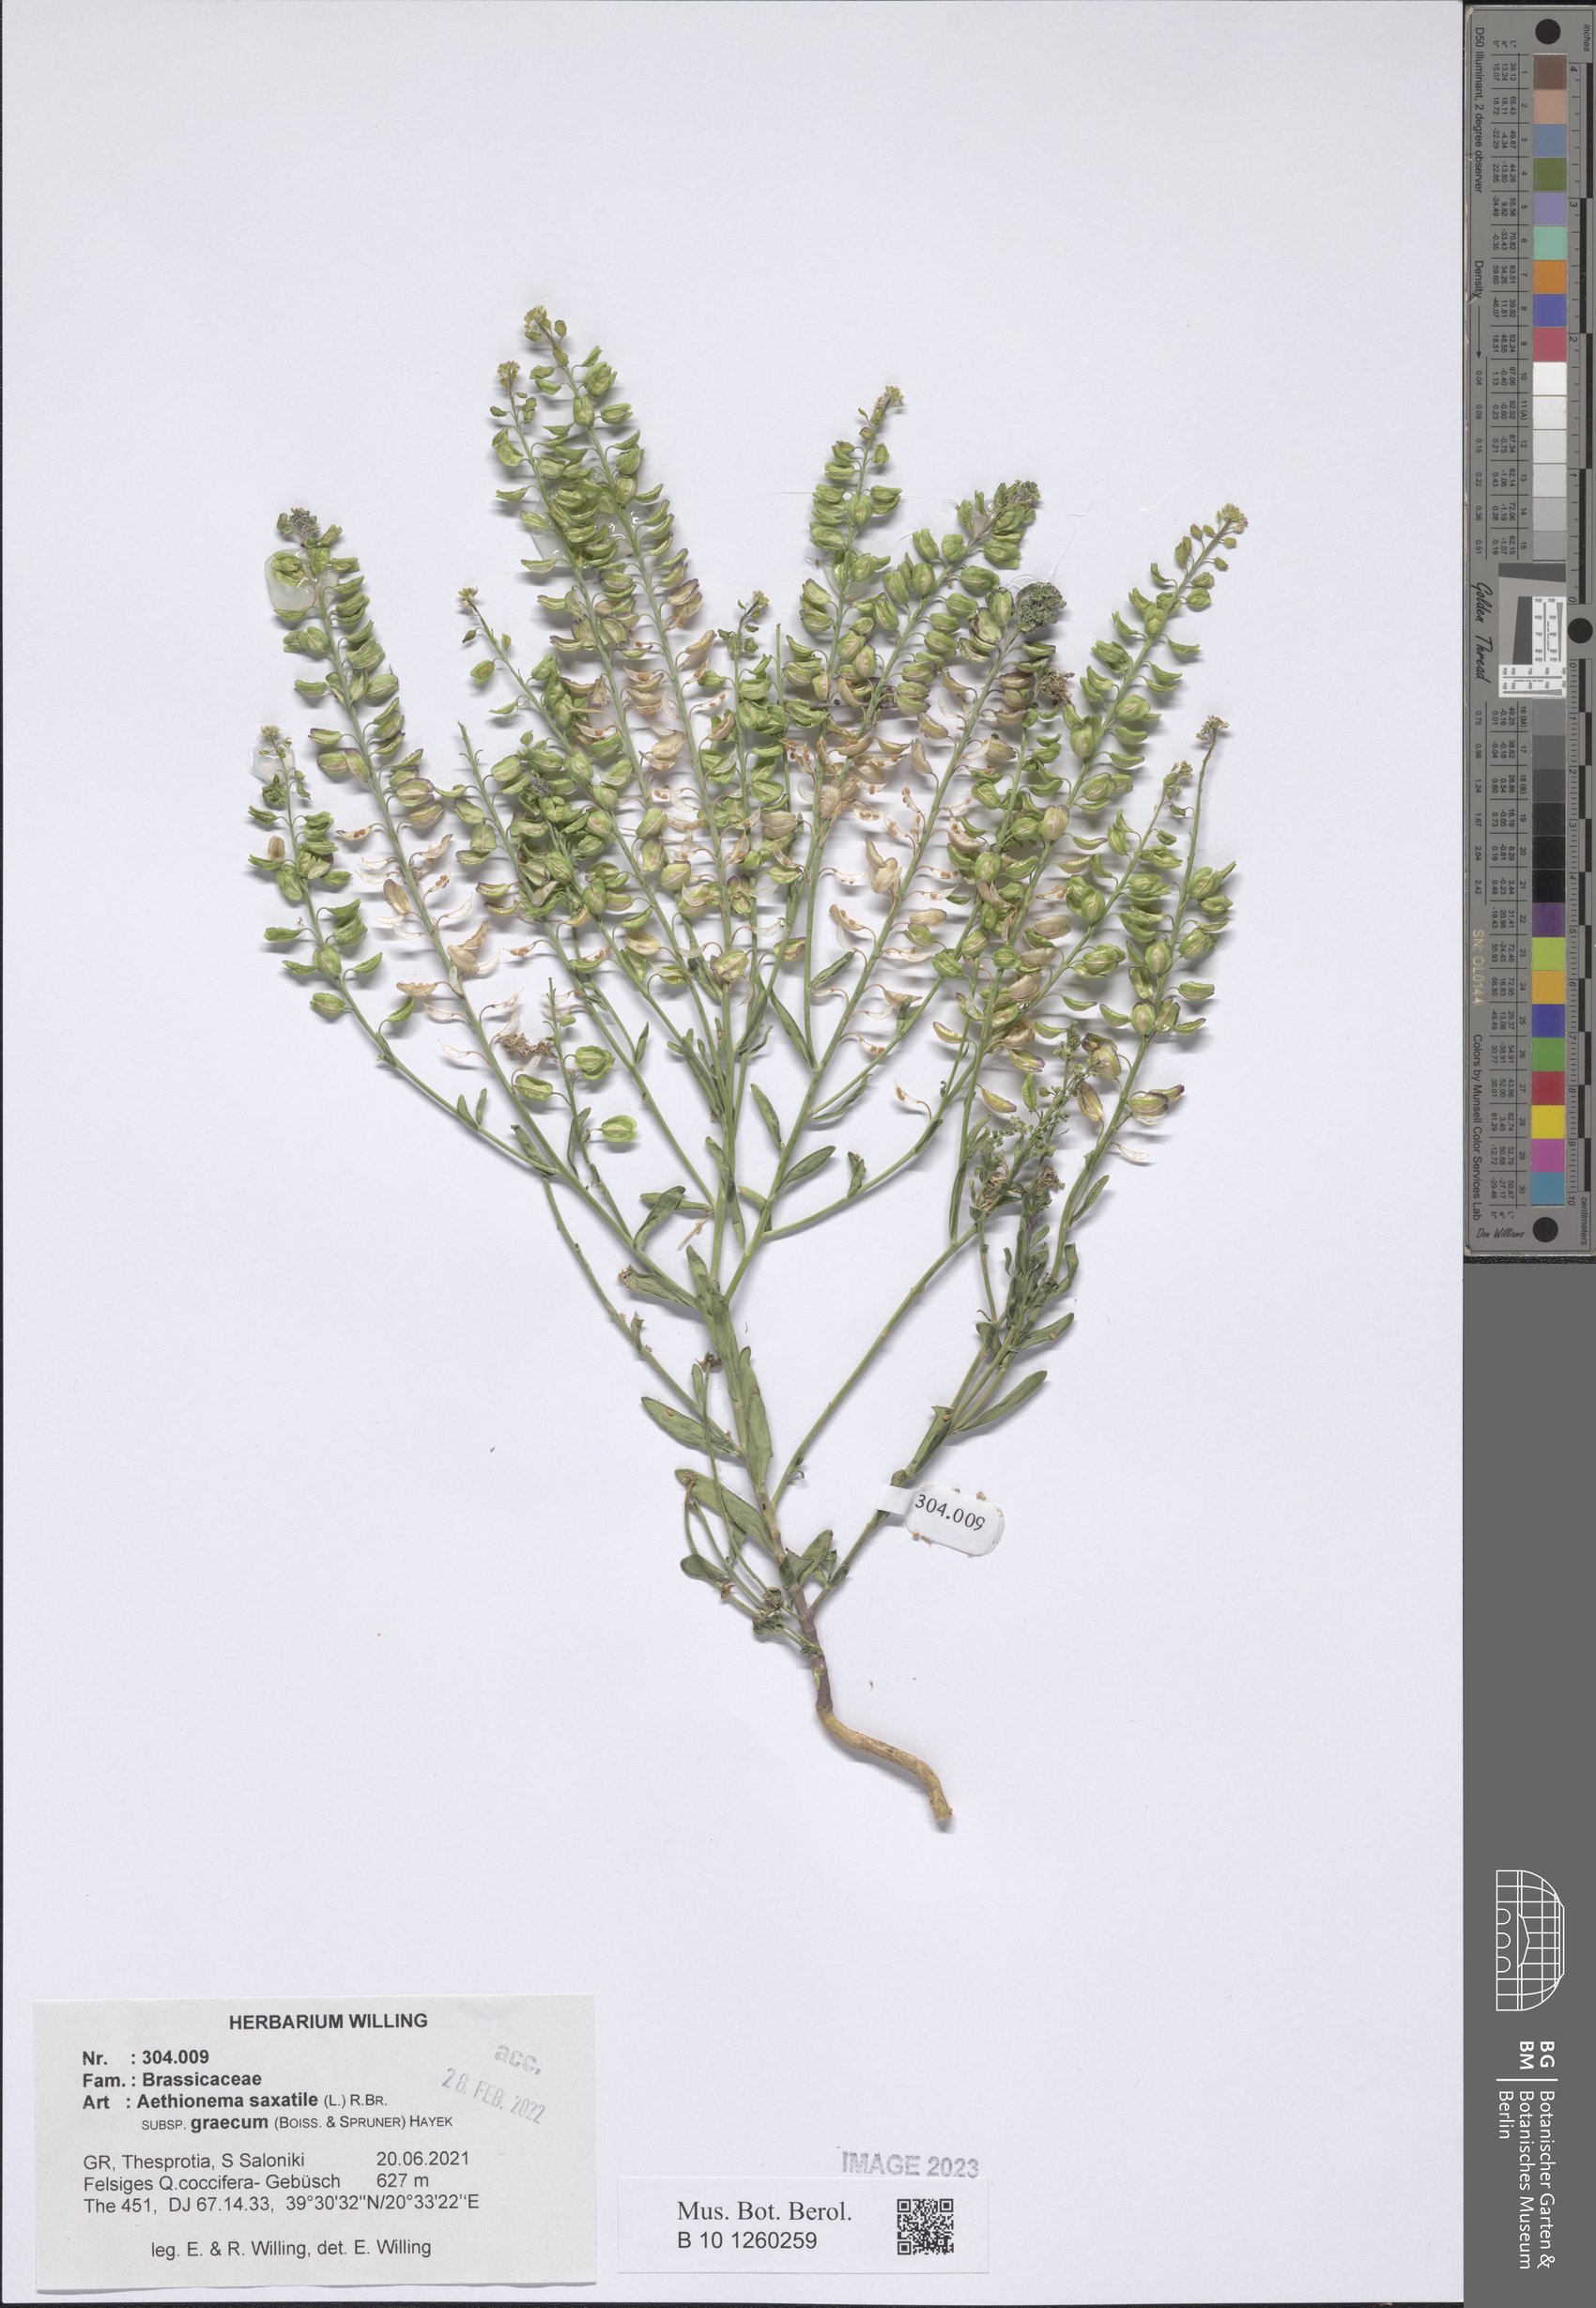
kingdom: Plantae
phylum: Tracheophyta
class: Magnoliopsida
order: Brassicales
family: Brassicaceae
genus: Aethionema
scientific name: Aethionema saxatile
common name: Burnt candytuft
